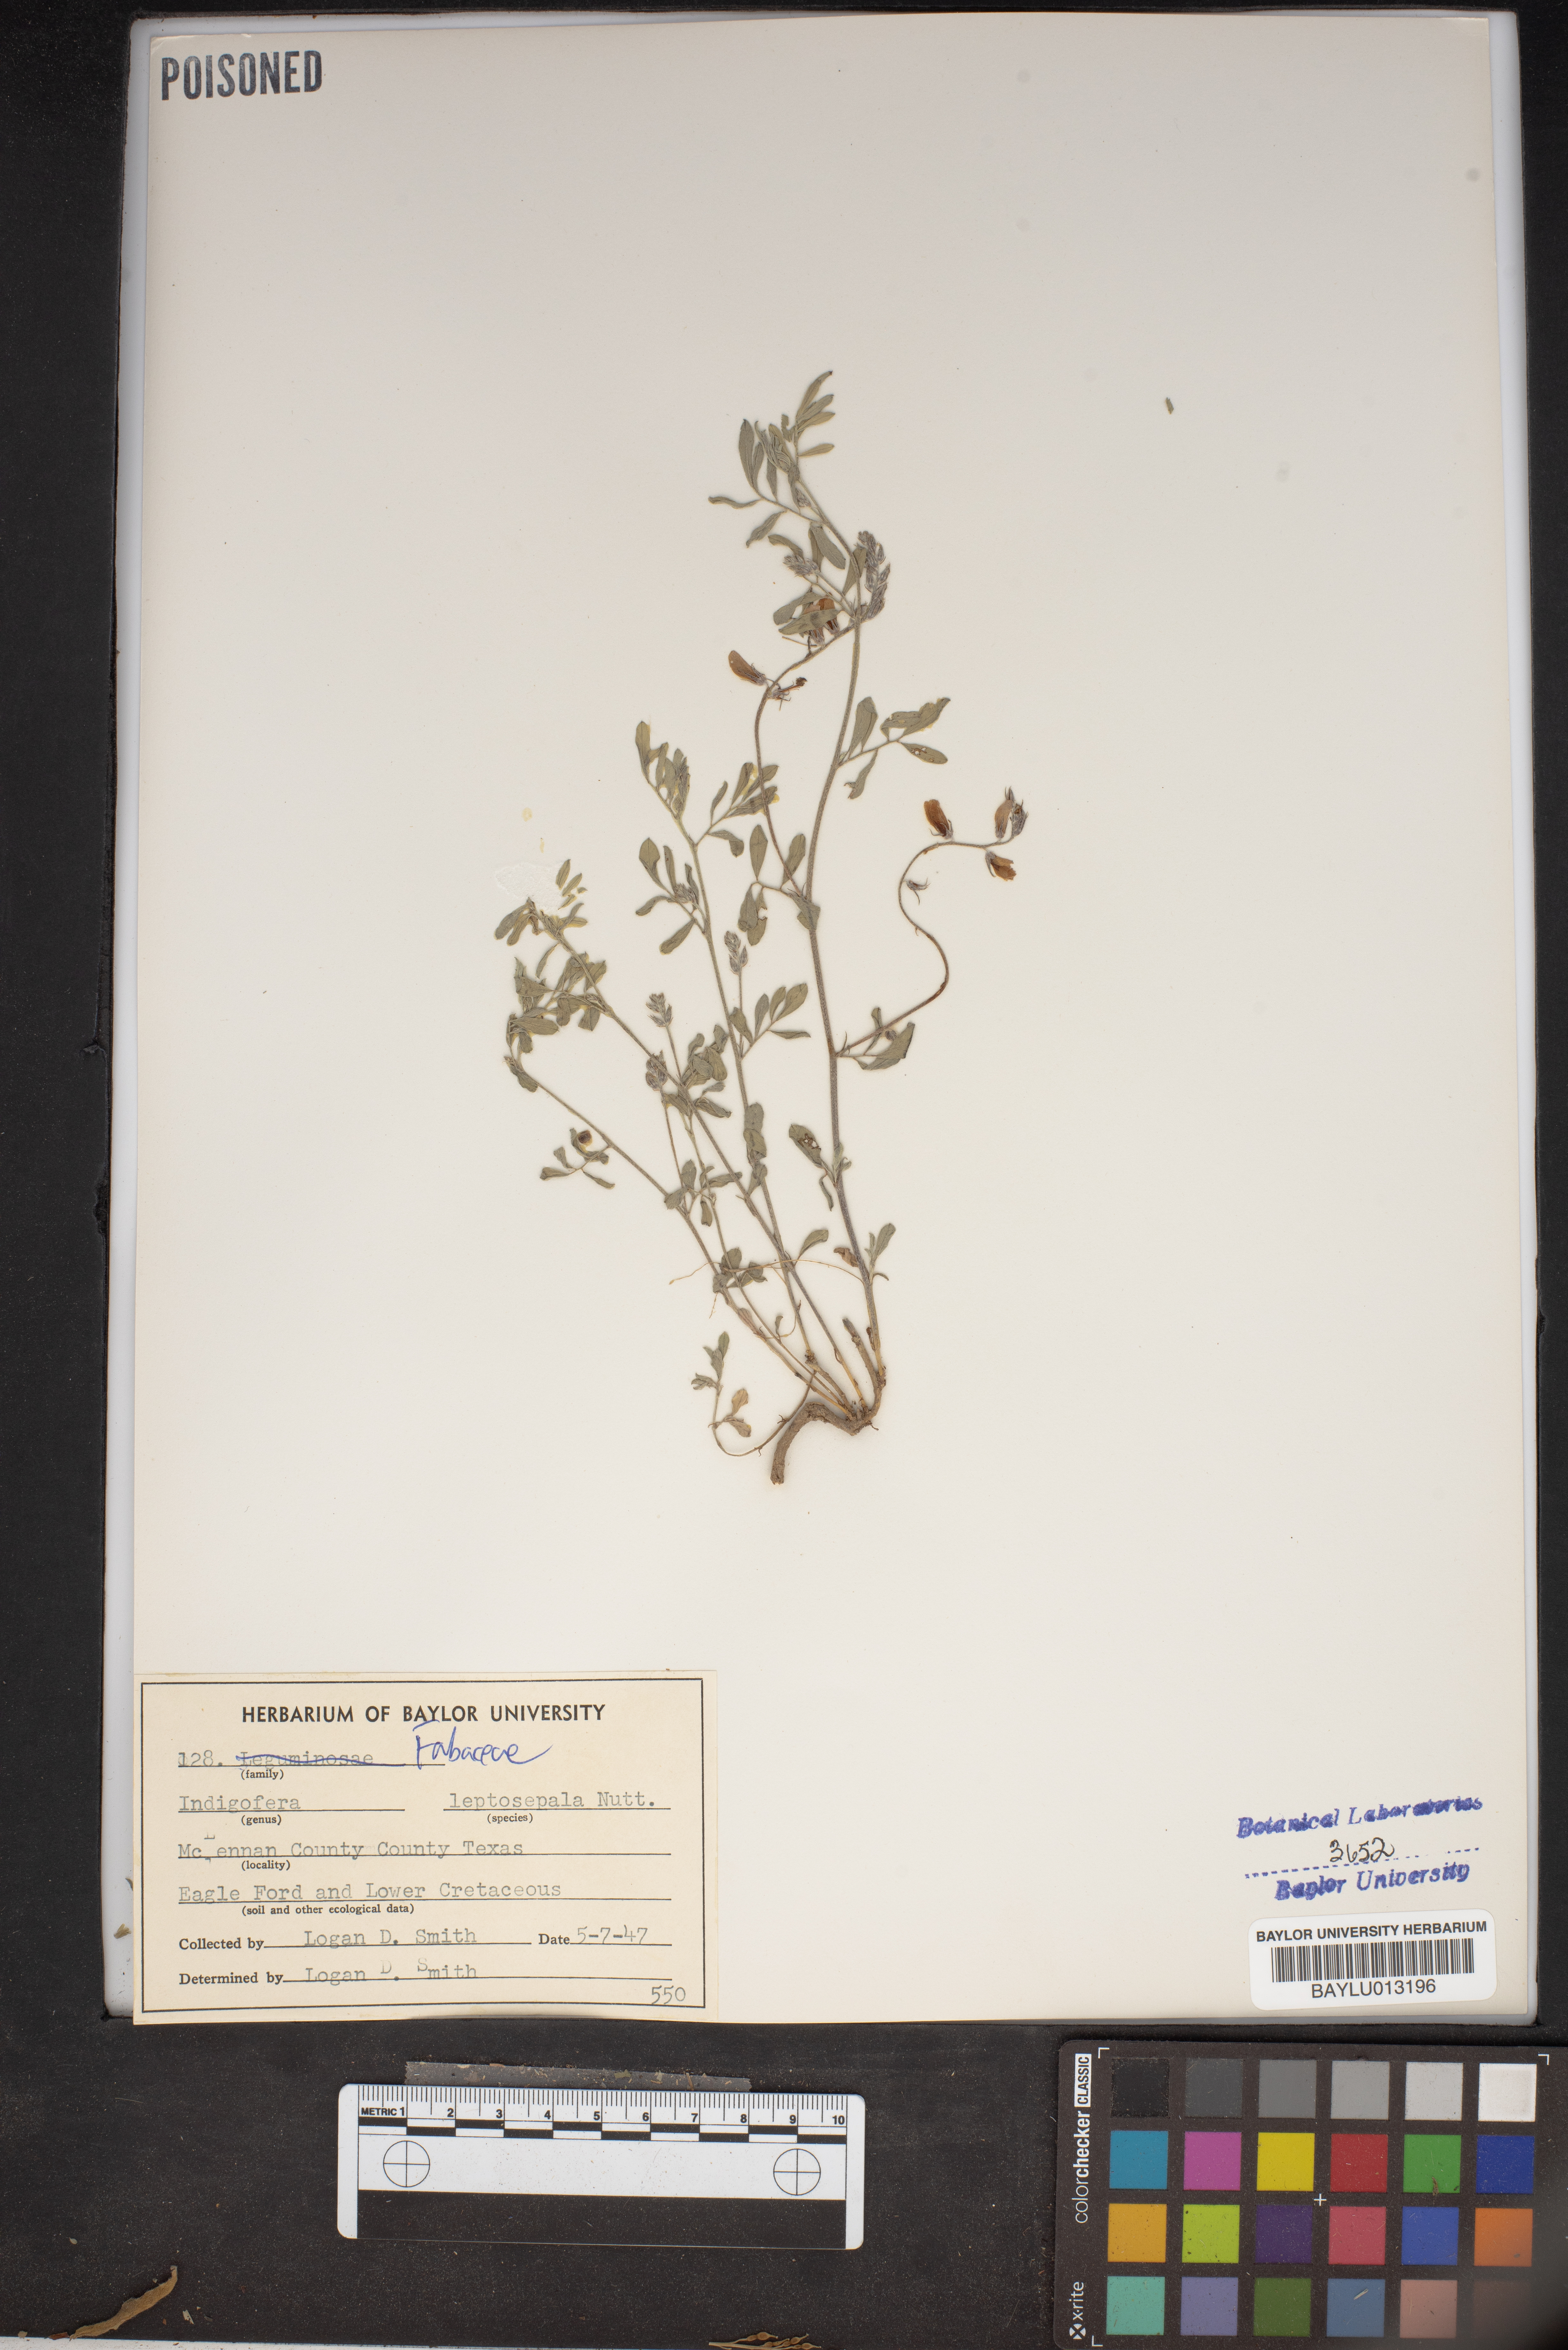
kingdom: Plantae
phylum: Tracheophyta
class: Magnoliopsida
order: Fabales
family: Fabaceae
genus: Indigofera
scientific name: Indigofera argutidens
